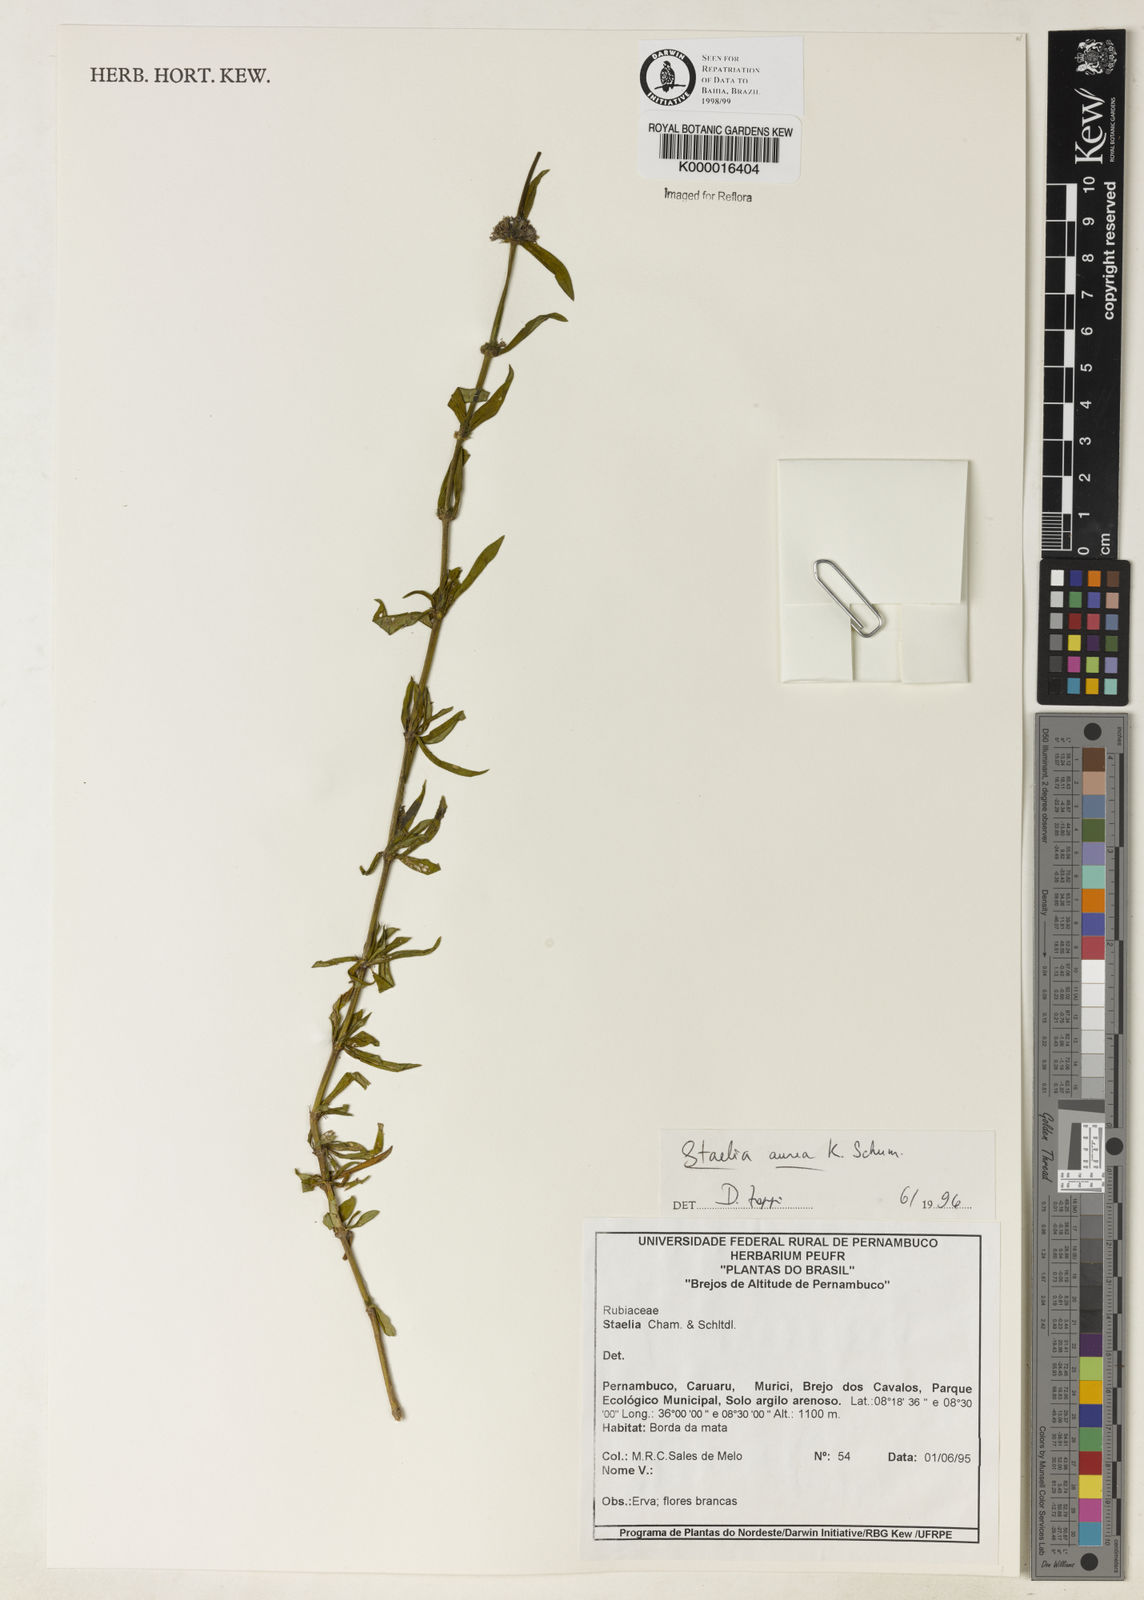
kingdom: Plantae
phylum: Tracheophyta
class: Magnoliopsida
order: Gentianales
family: Rubiaceae
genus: Staelia
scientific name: Staelia aurea
